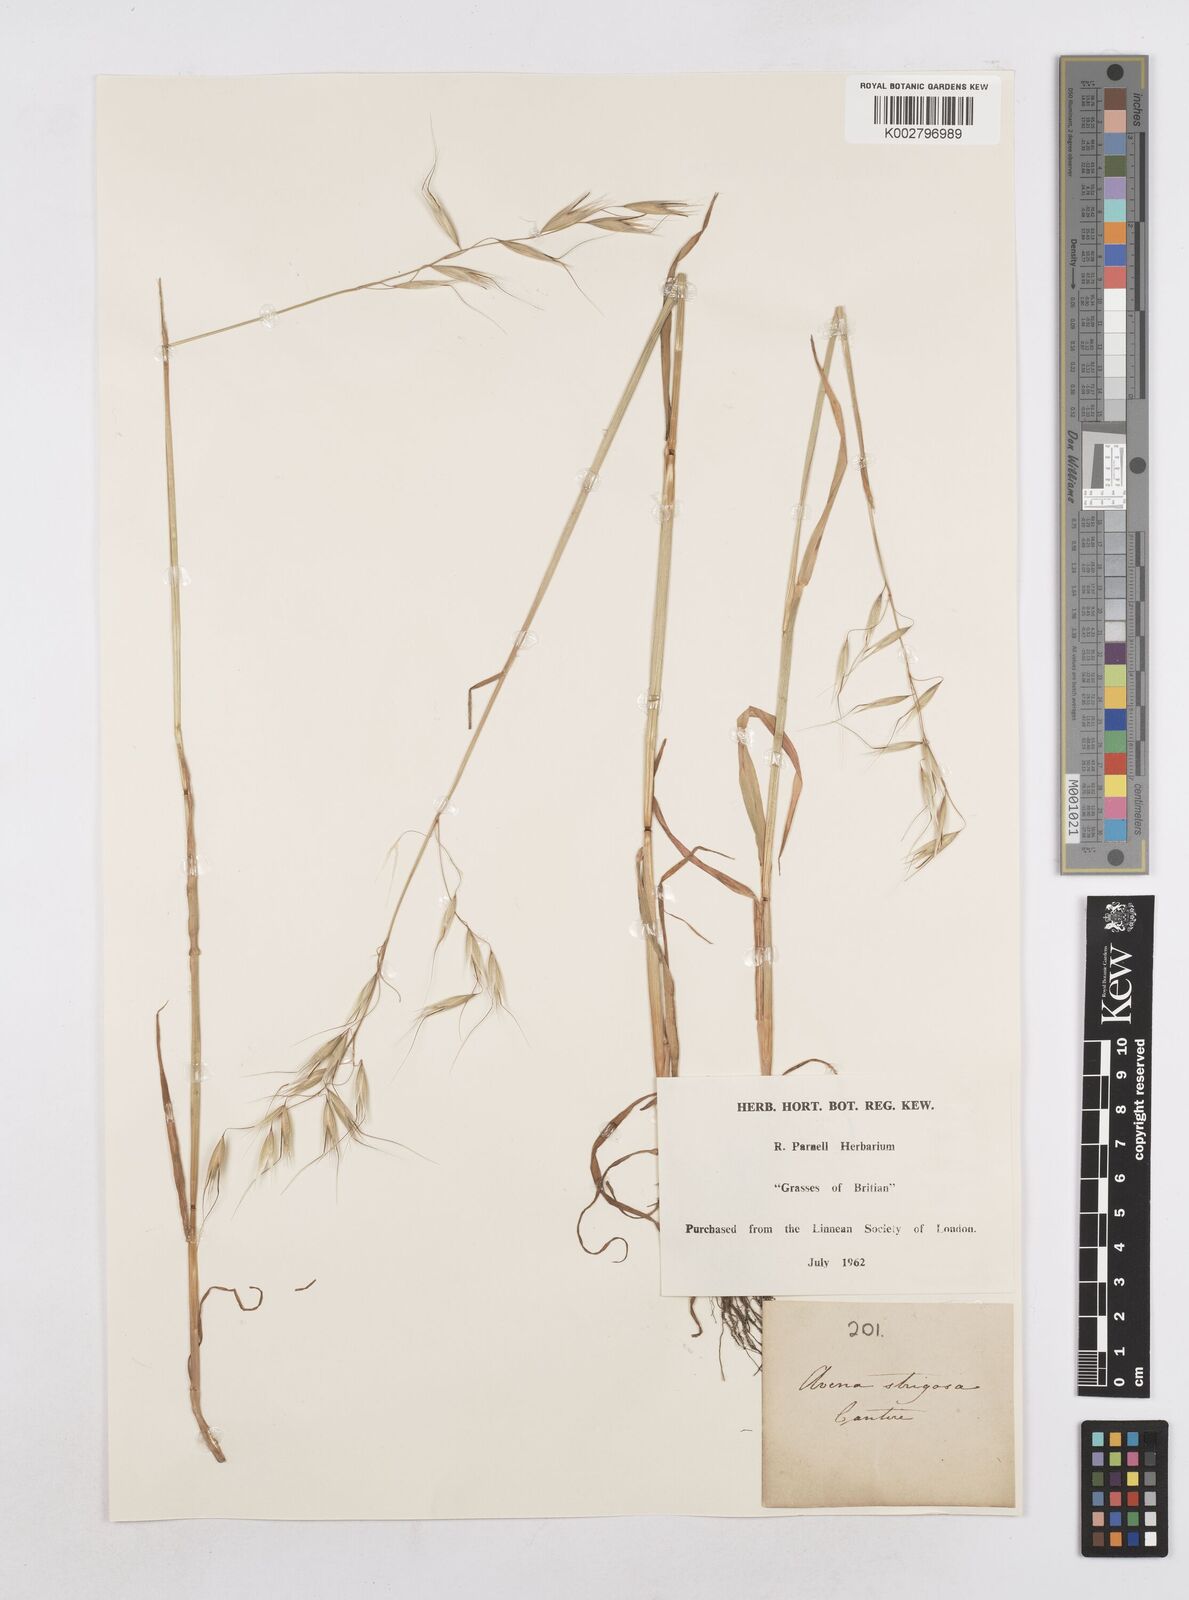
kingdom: Plantae
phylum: Tracheophyta
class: Liliopsida
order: Poales
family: Poaceae
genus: Avena
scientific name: Avena strigosa
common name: Bristle oat
